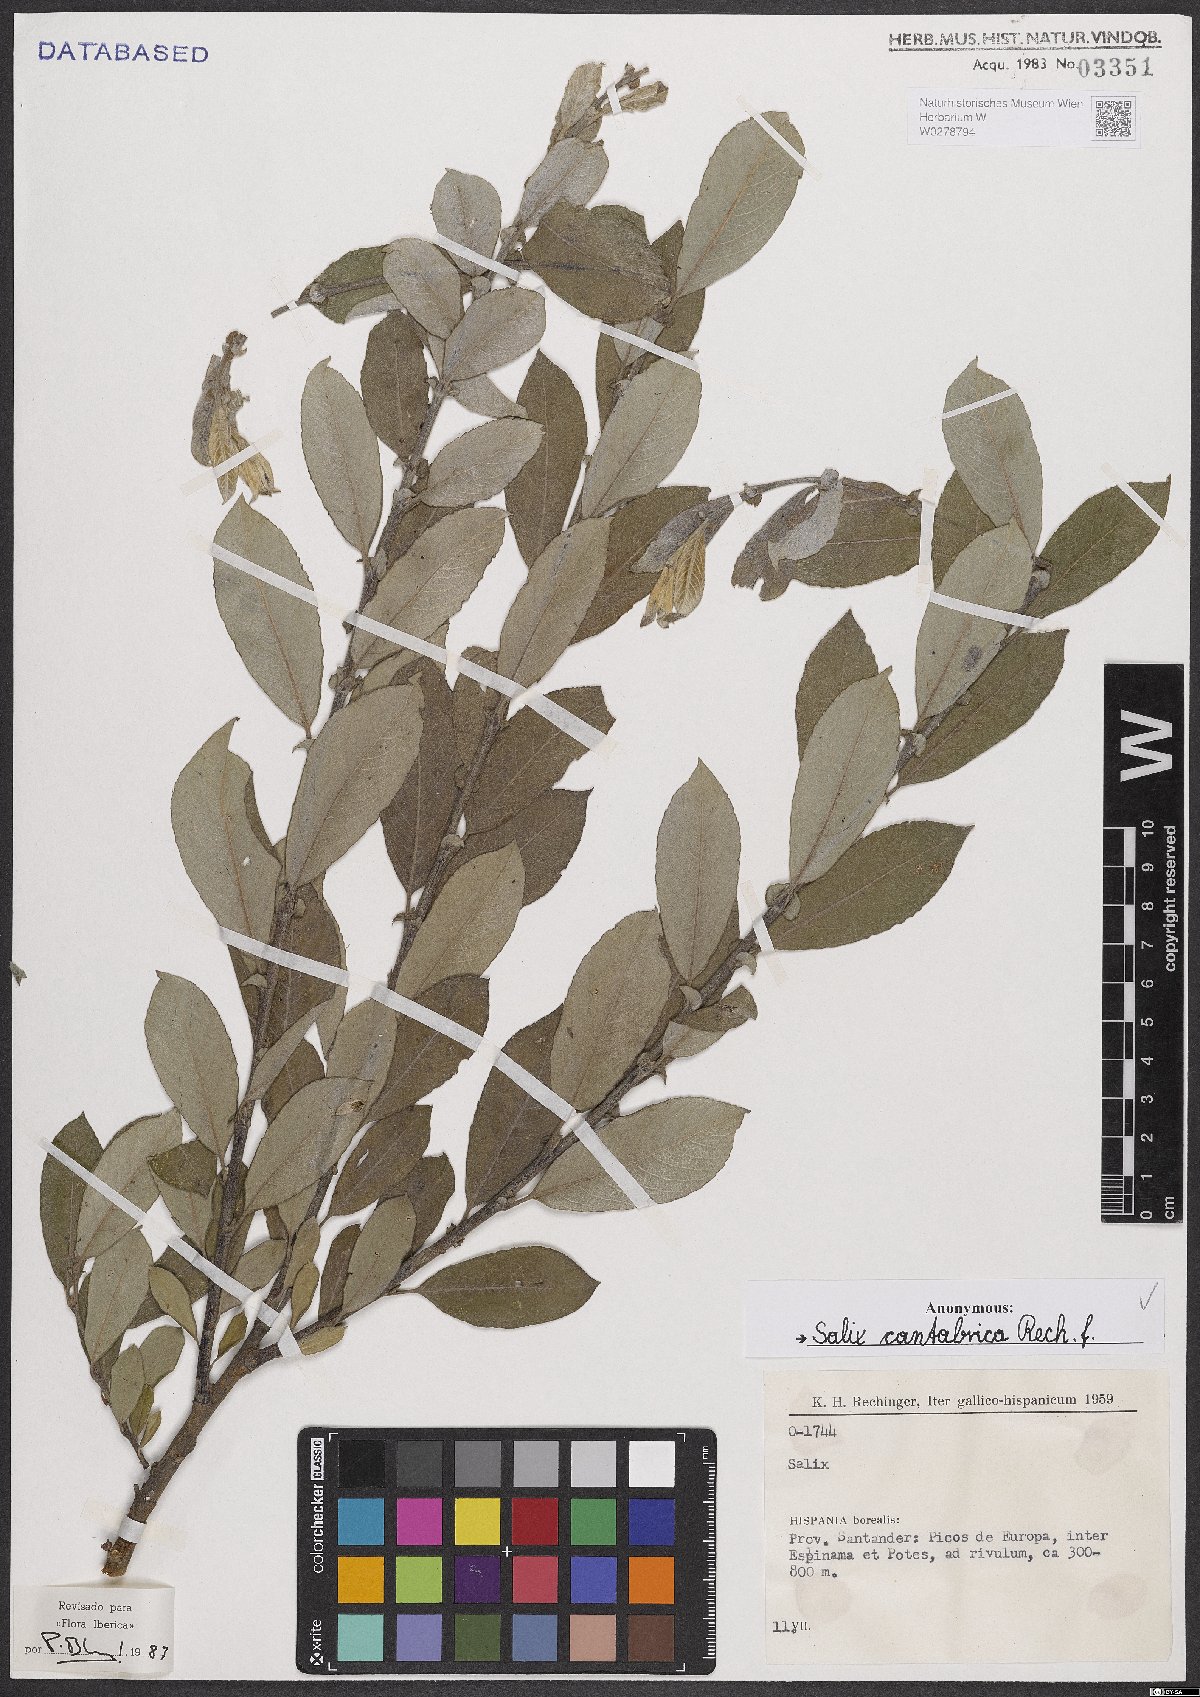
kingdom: Plantae
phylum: Tracheophyta
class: Magnoliopsida
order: Malpighiales
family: Salicaceae
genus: Salix
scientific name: Salix cantabrica
